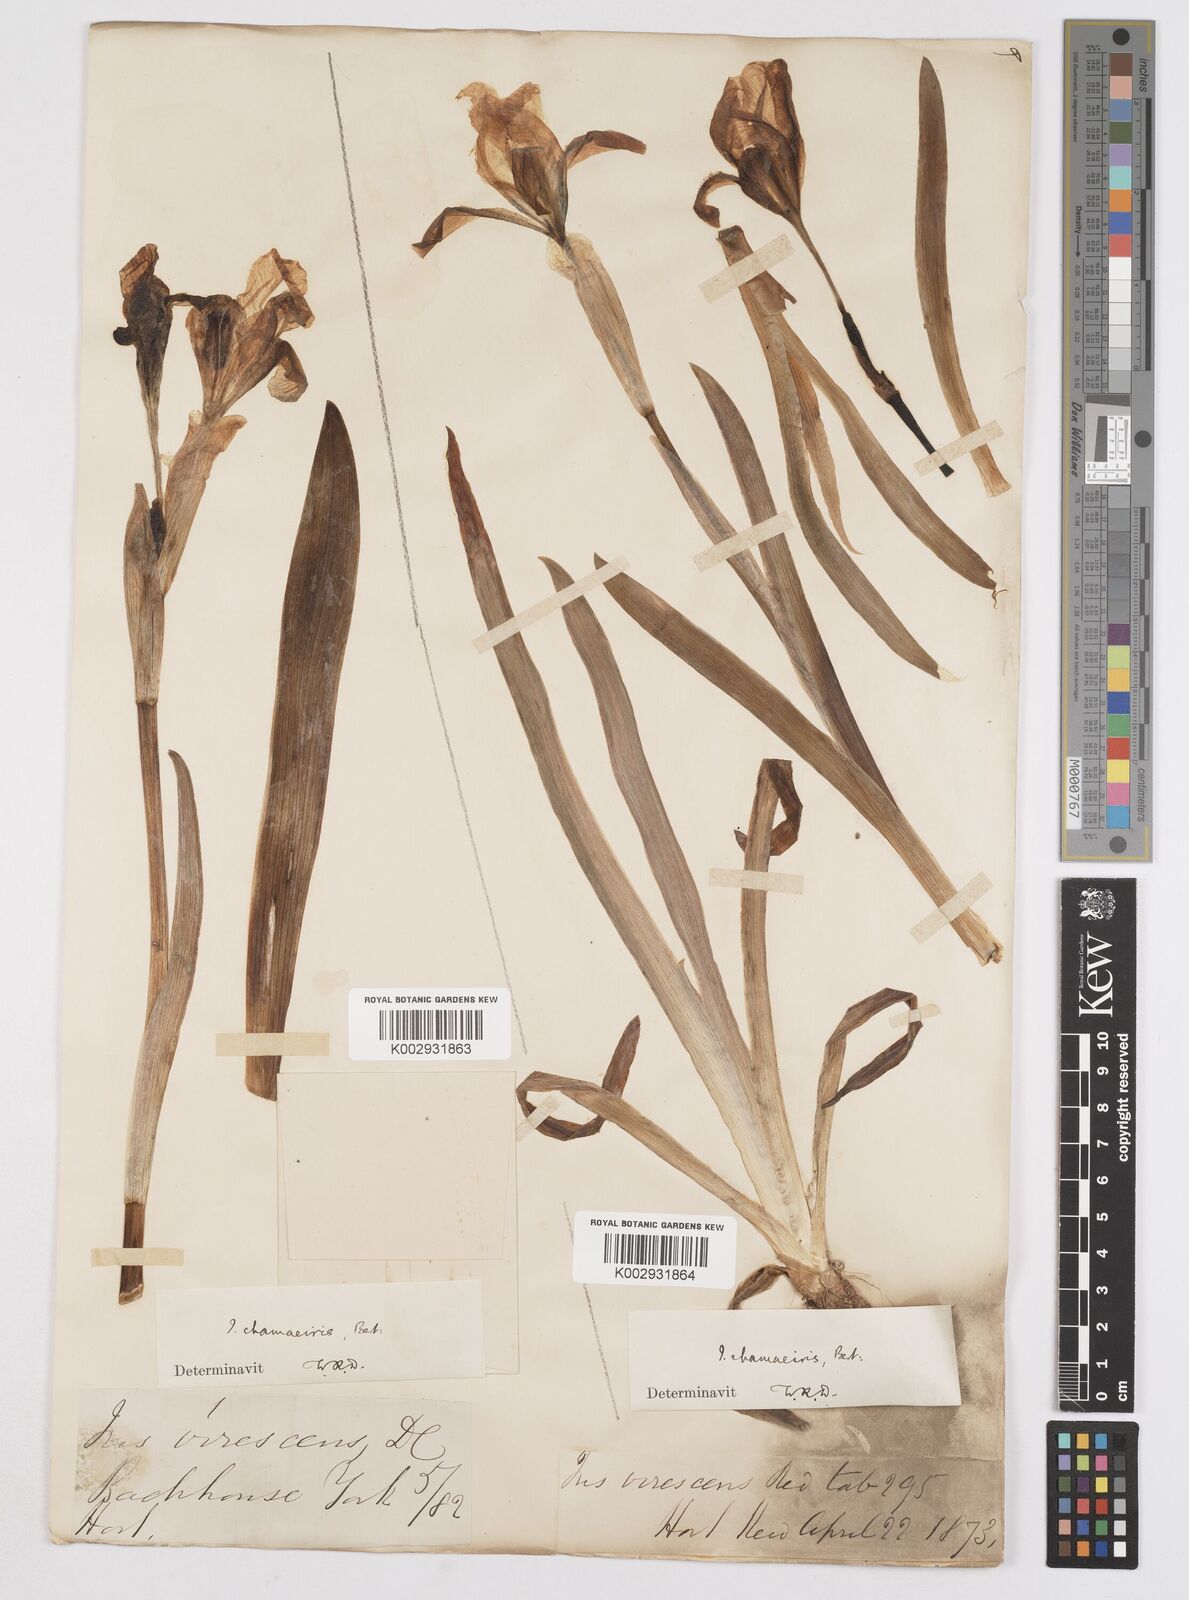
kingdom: Plantae
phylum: Tracheophyta
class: Liliopsida
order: Asparagales
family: Iridaceae
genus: Iris
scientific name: Iris lutescens
